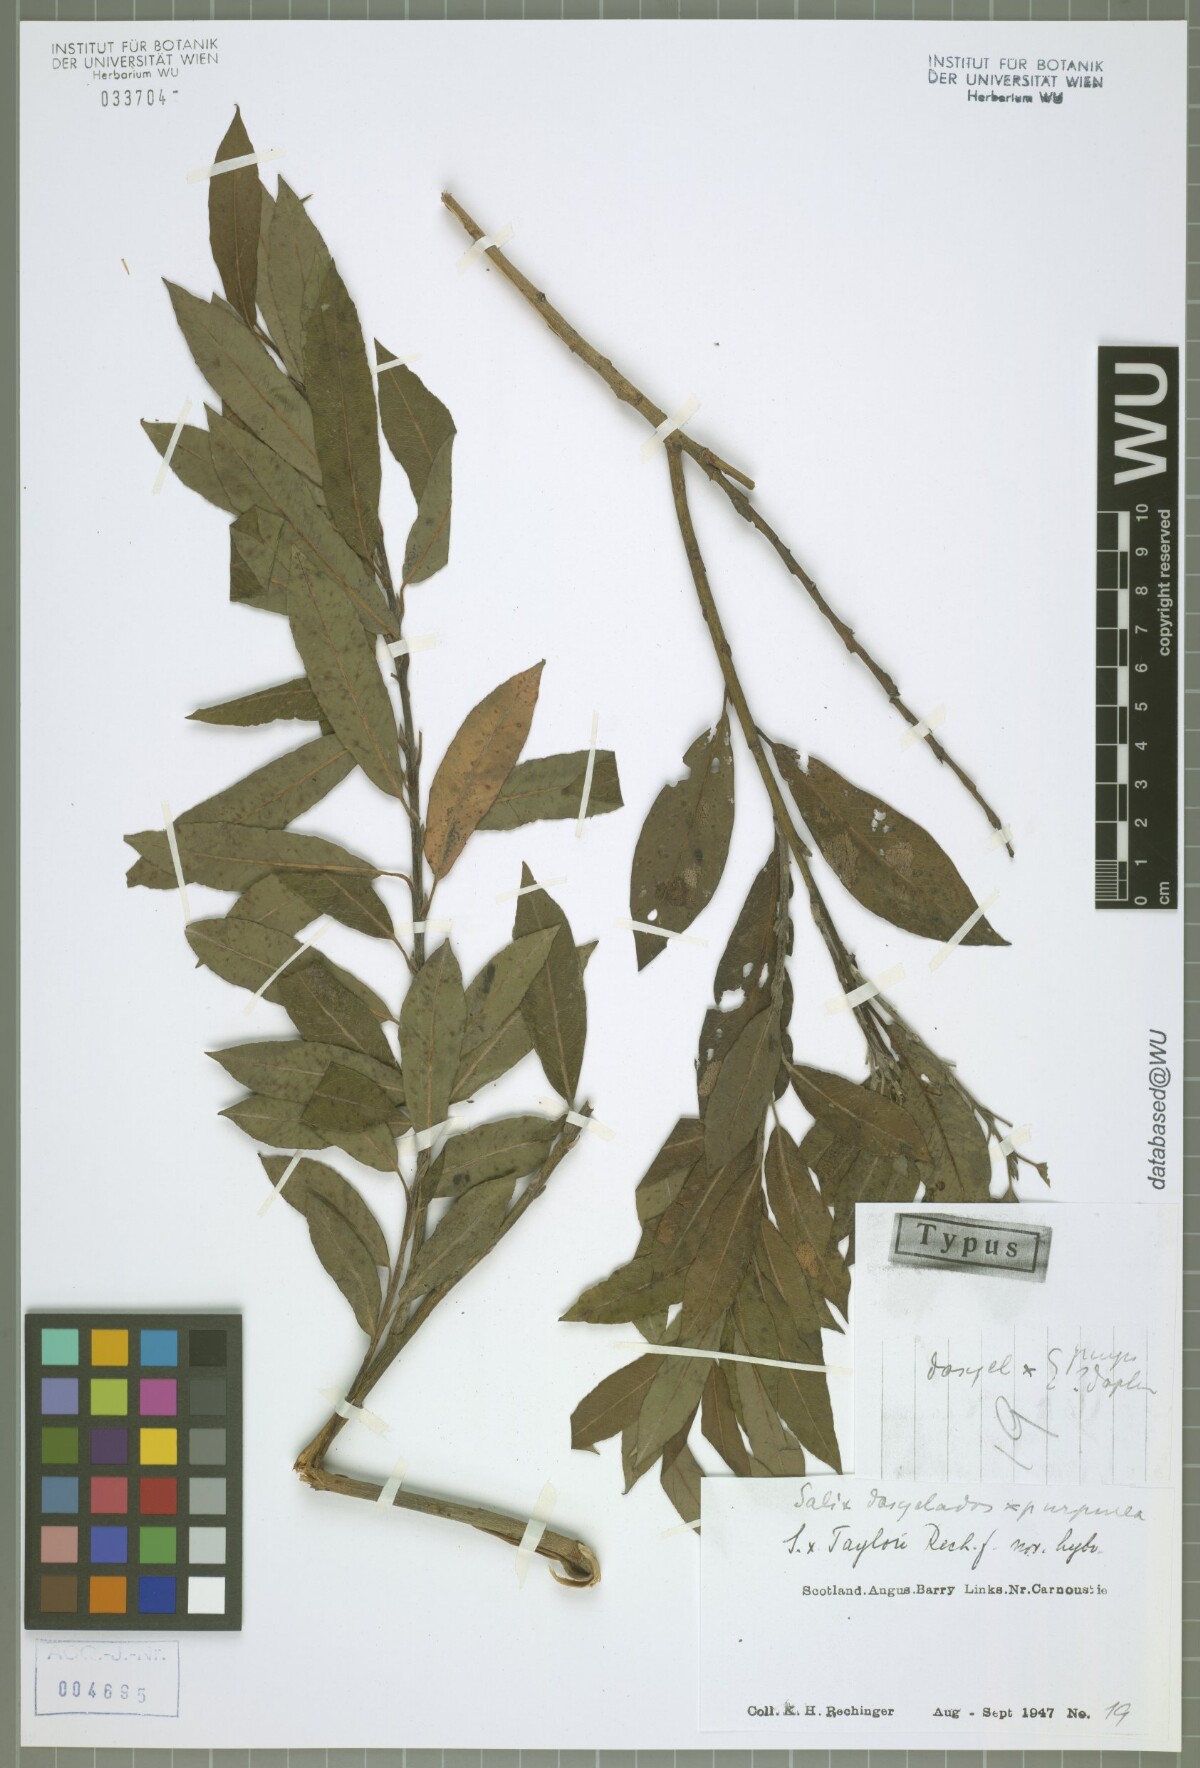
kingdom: Plantae
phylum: Tracheophyta
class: Magnoliopsida
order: Malpighiales
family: Salicaceae
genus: Salix
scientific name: Salix taylorii
